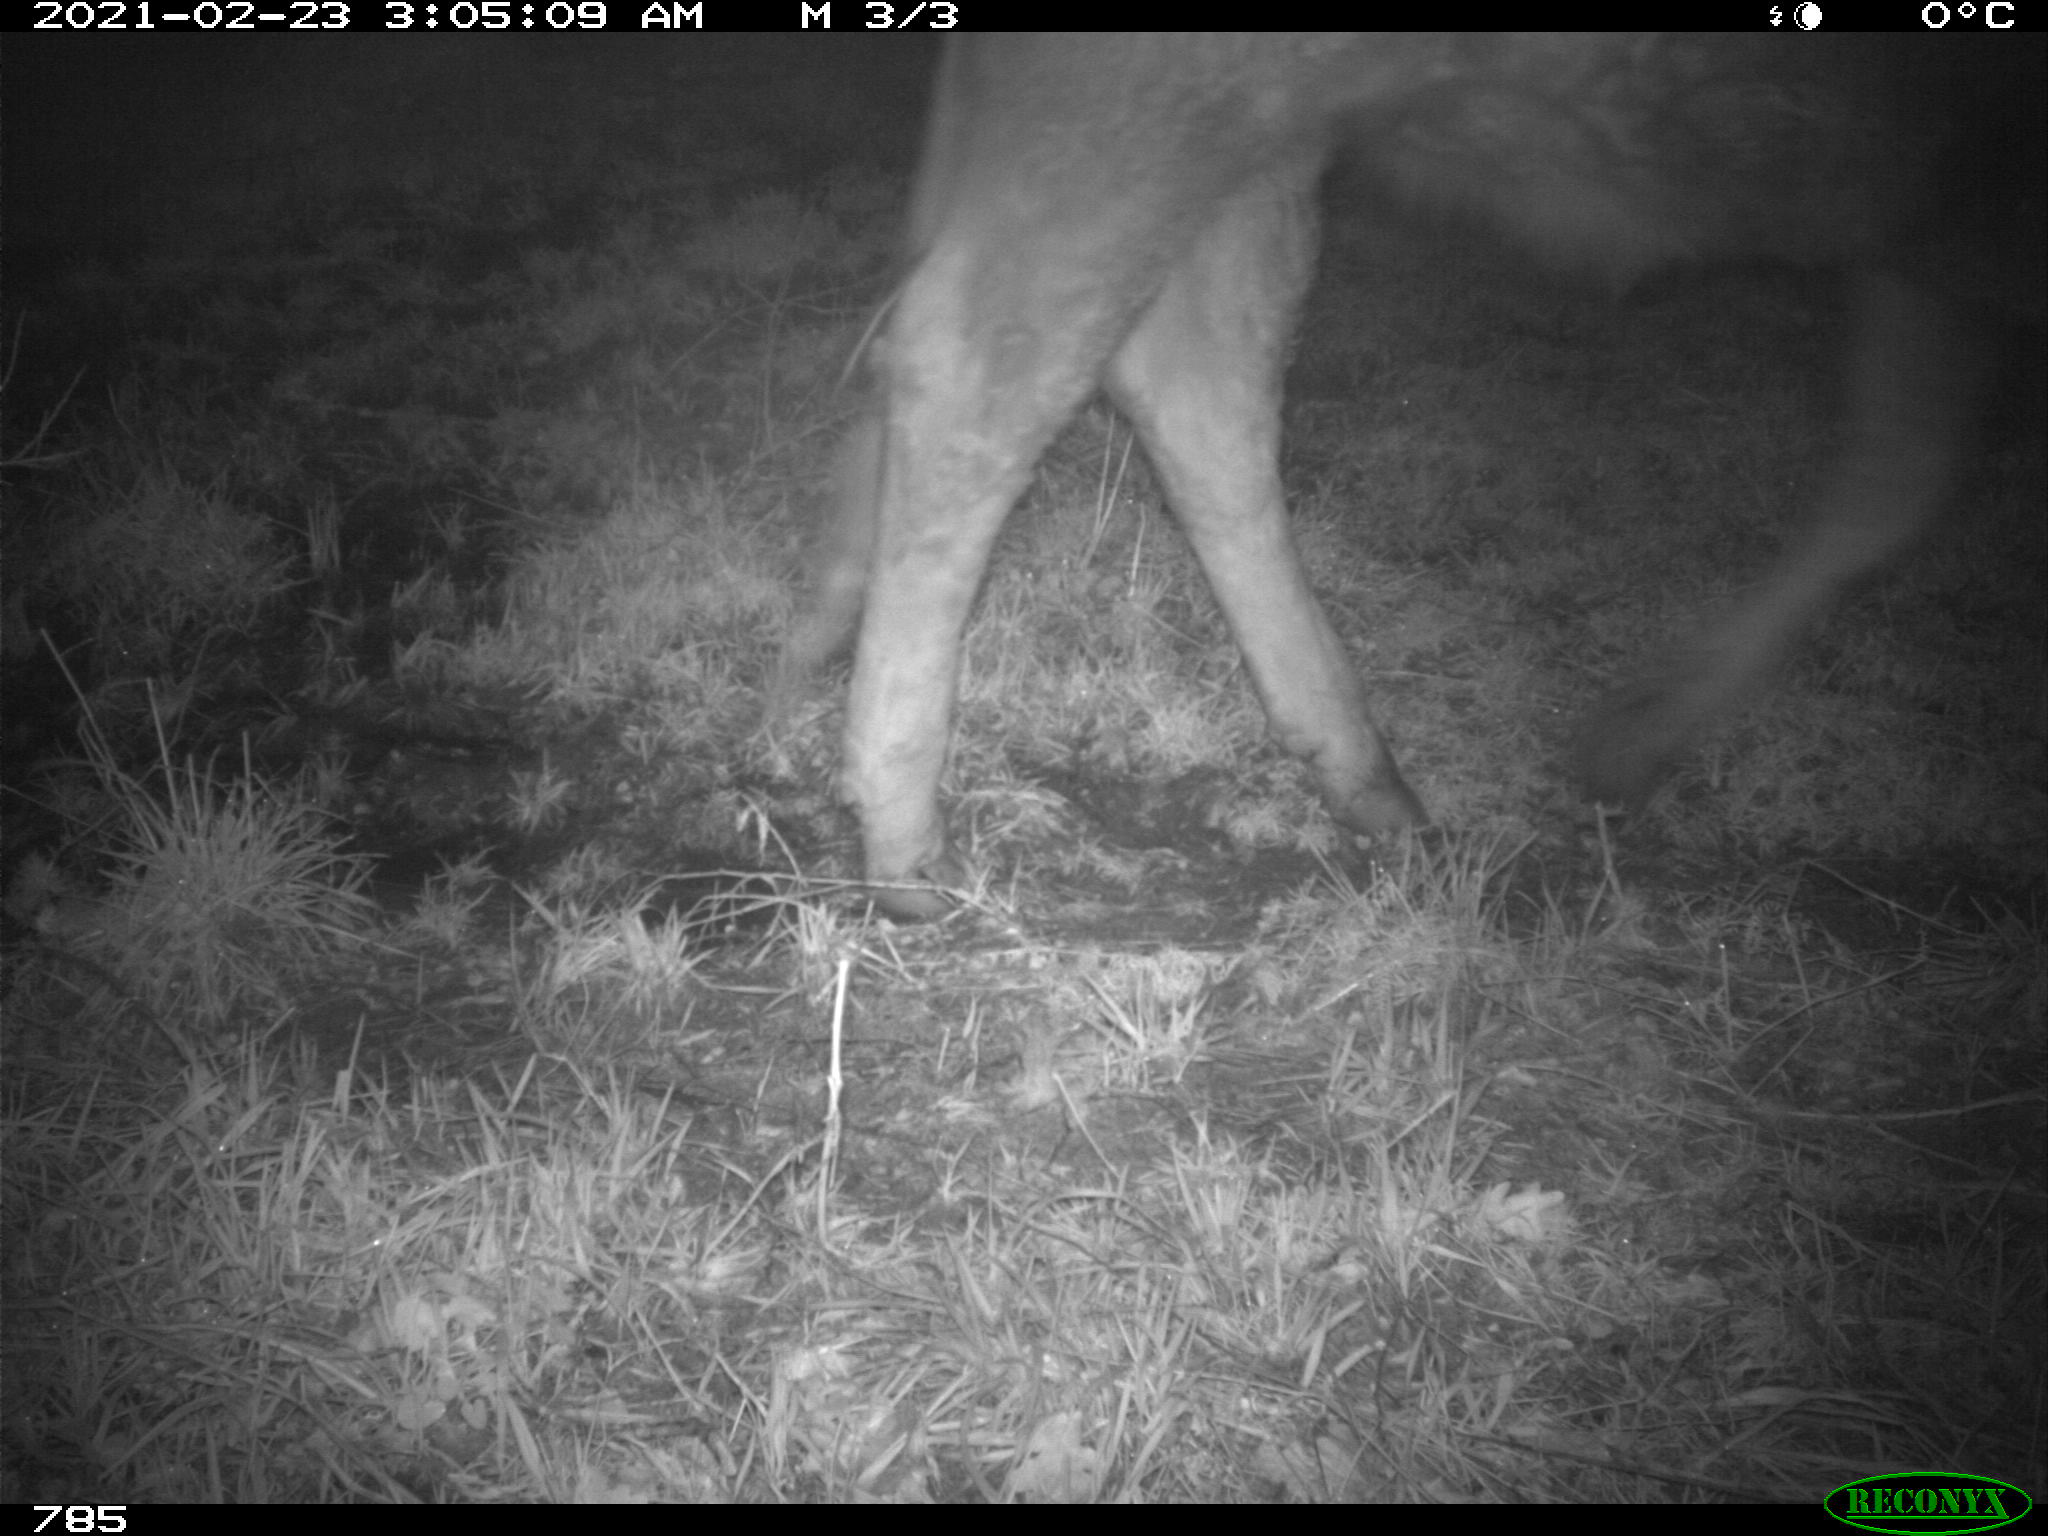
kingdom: Animalia
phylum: Chordata
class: Mammalia
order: Artiodactyla
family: Bovidae
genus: Bos
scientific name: Bos taurus
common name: Domesticated cattle
